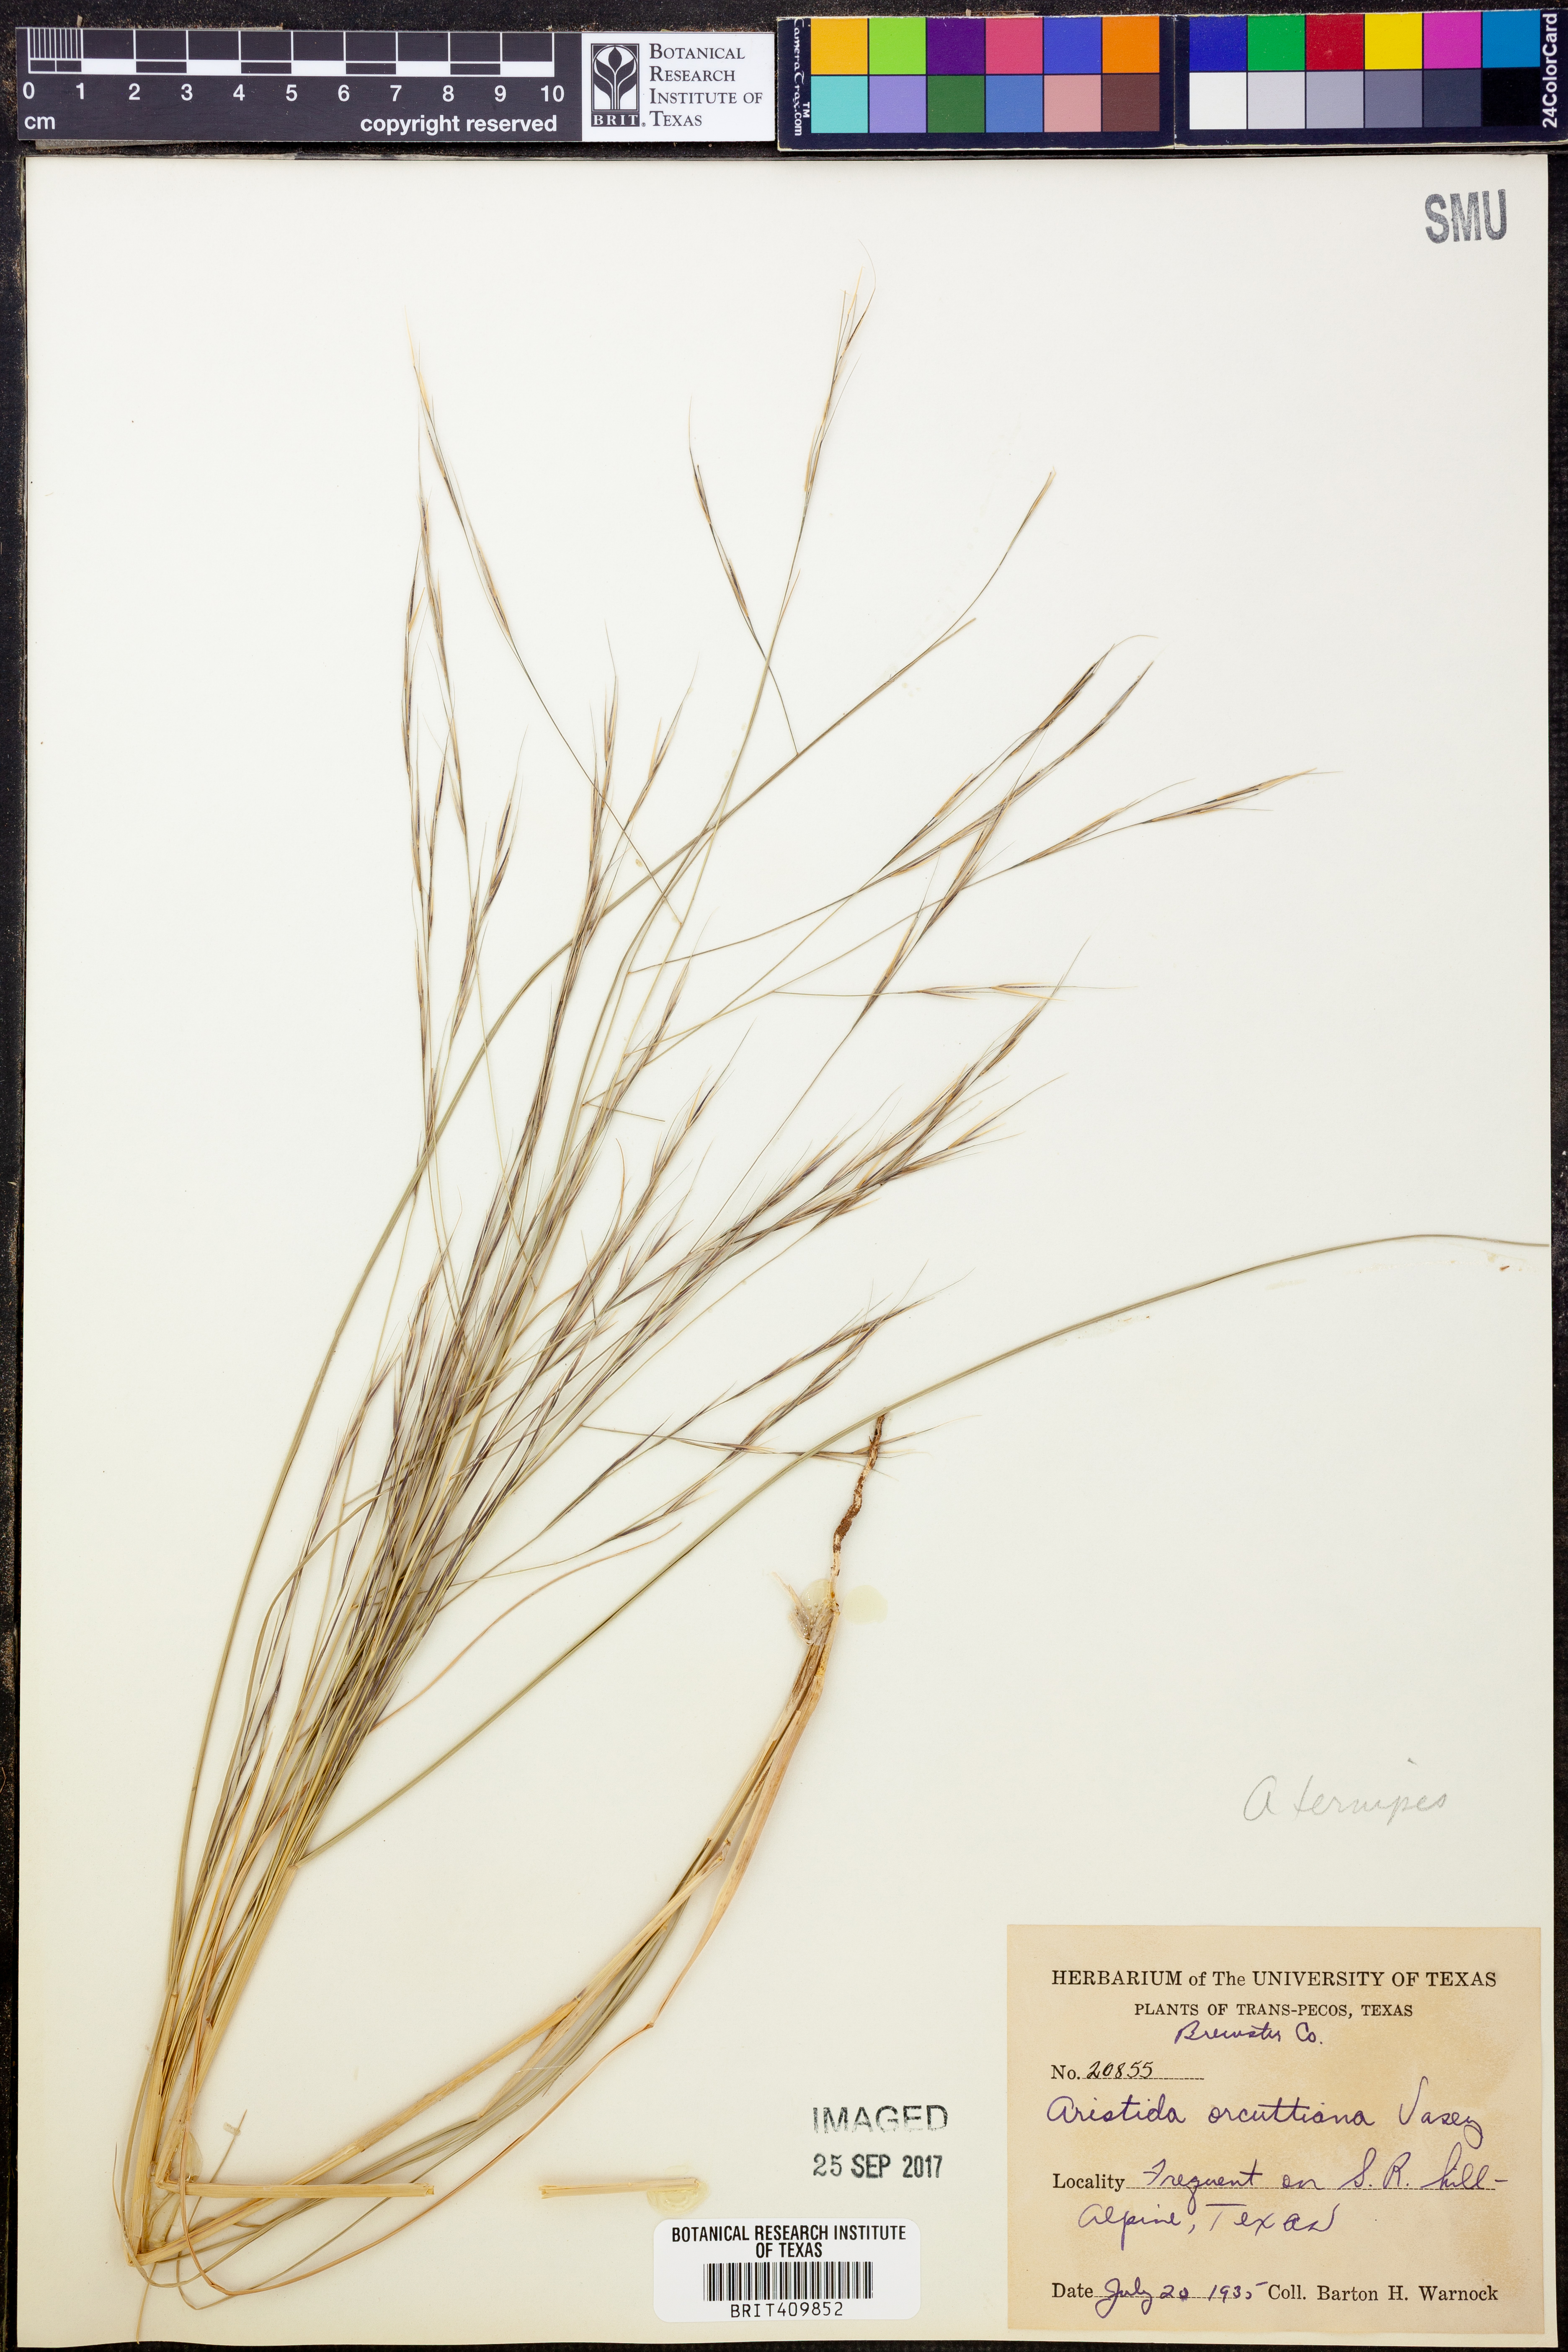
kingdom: Plantae
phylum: Tracheophyta
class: Liliopsida
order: Poales
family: Poaceae
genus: Aristida
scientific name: Aristida ternipes
